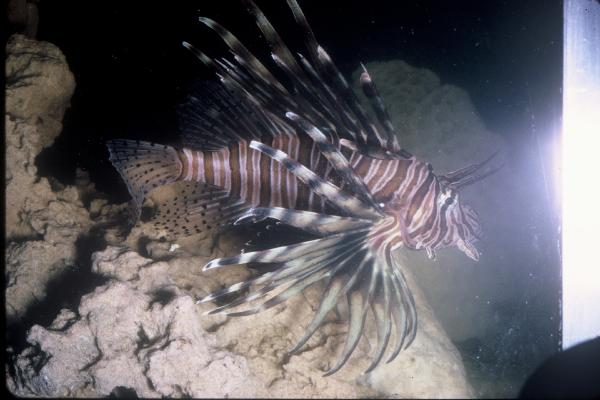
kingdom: Animalia
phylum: Chordata
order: Scorpaeniformes
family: Scorpaenidae
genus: Pterois
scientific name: Pterois volitans
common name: Lionfish
